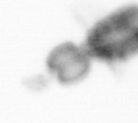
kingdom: Animalia
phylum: Arthropoda
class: Copepoda
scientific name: Copepoda
